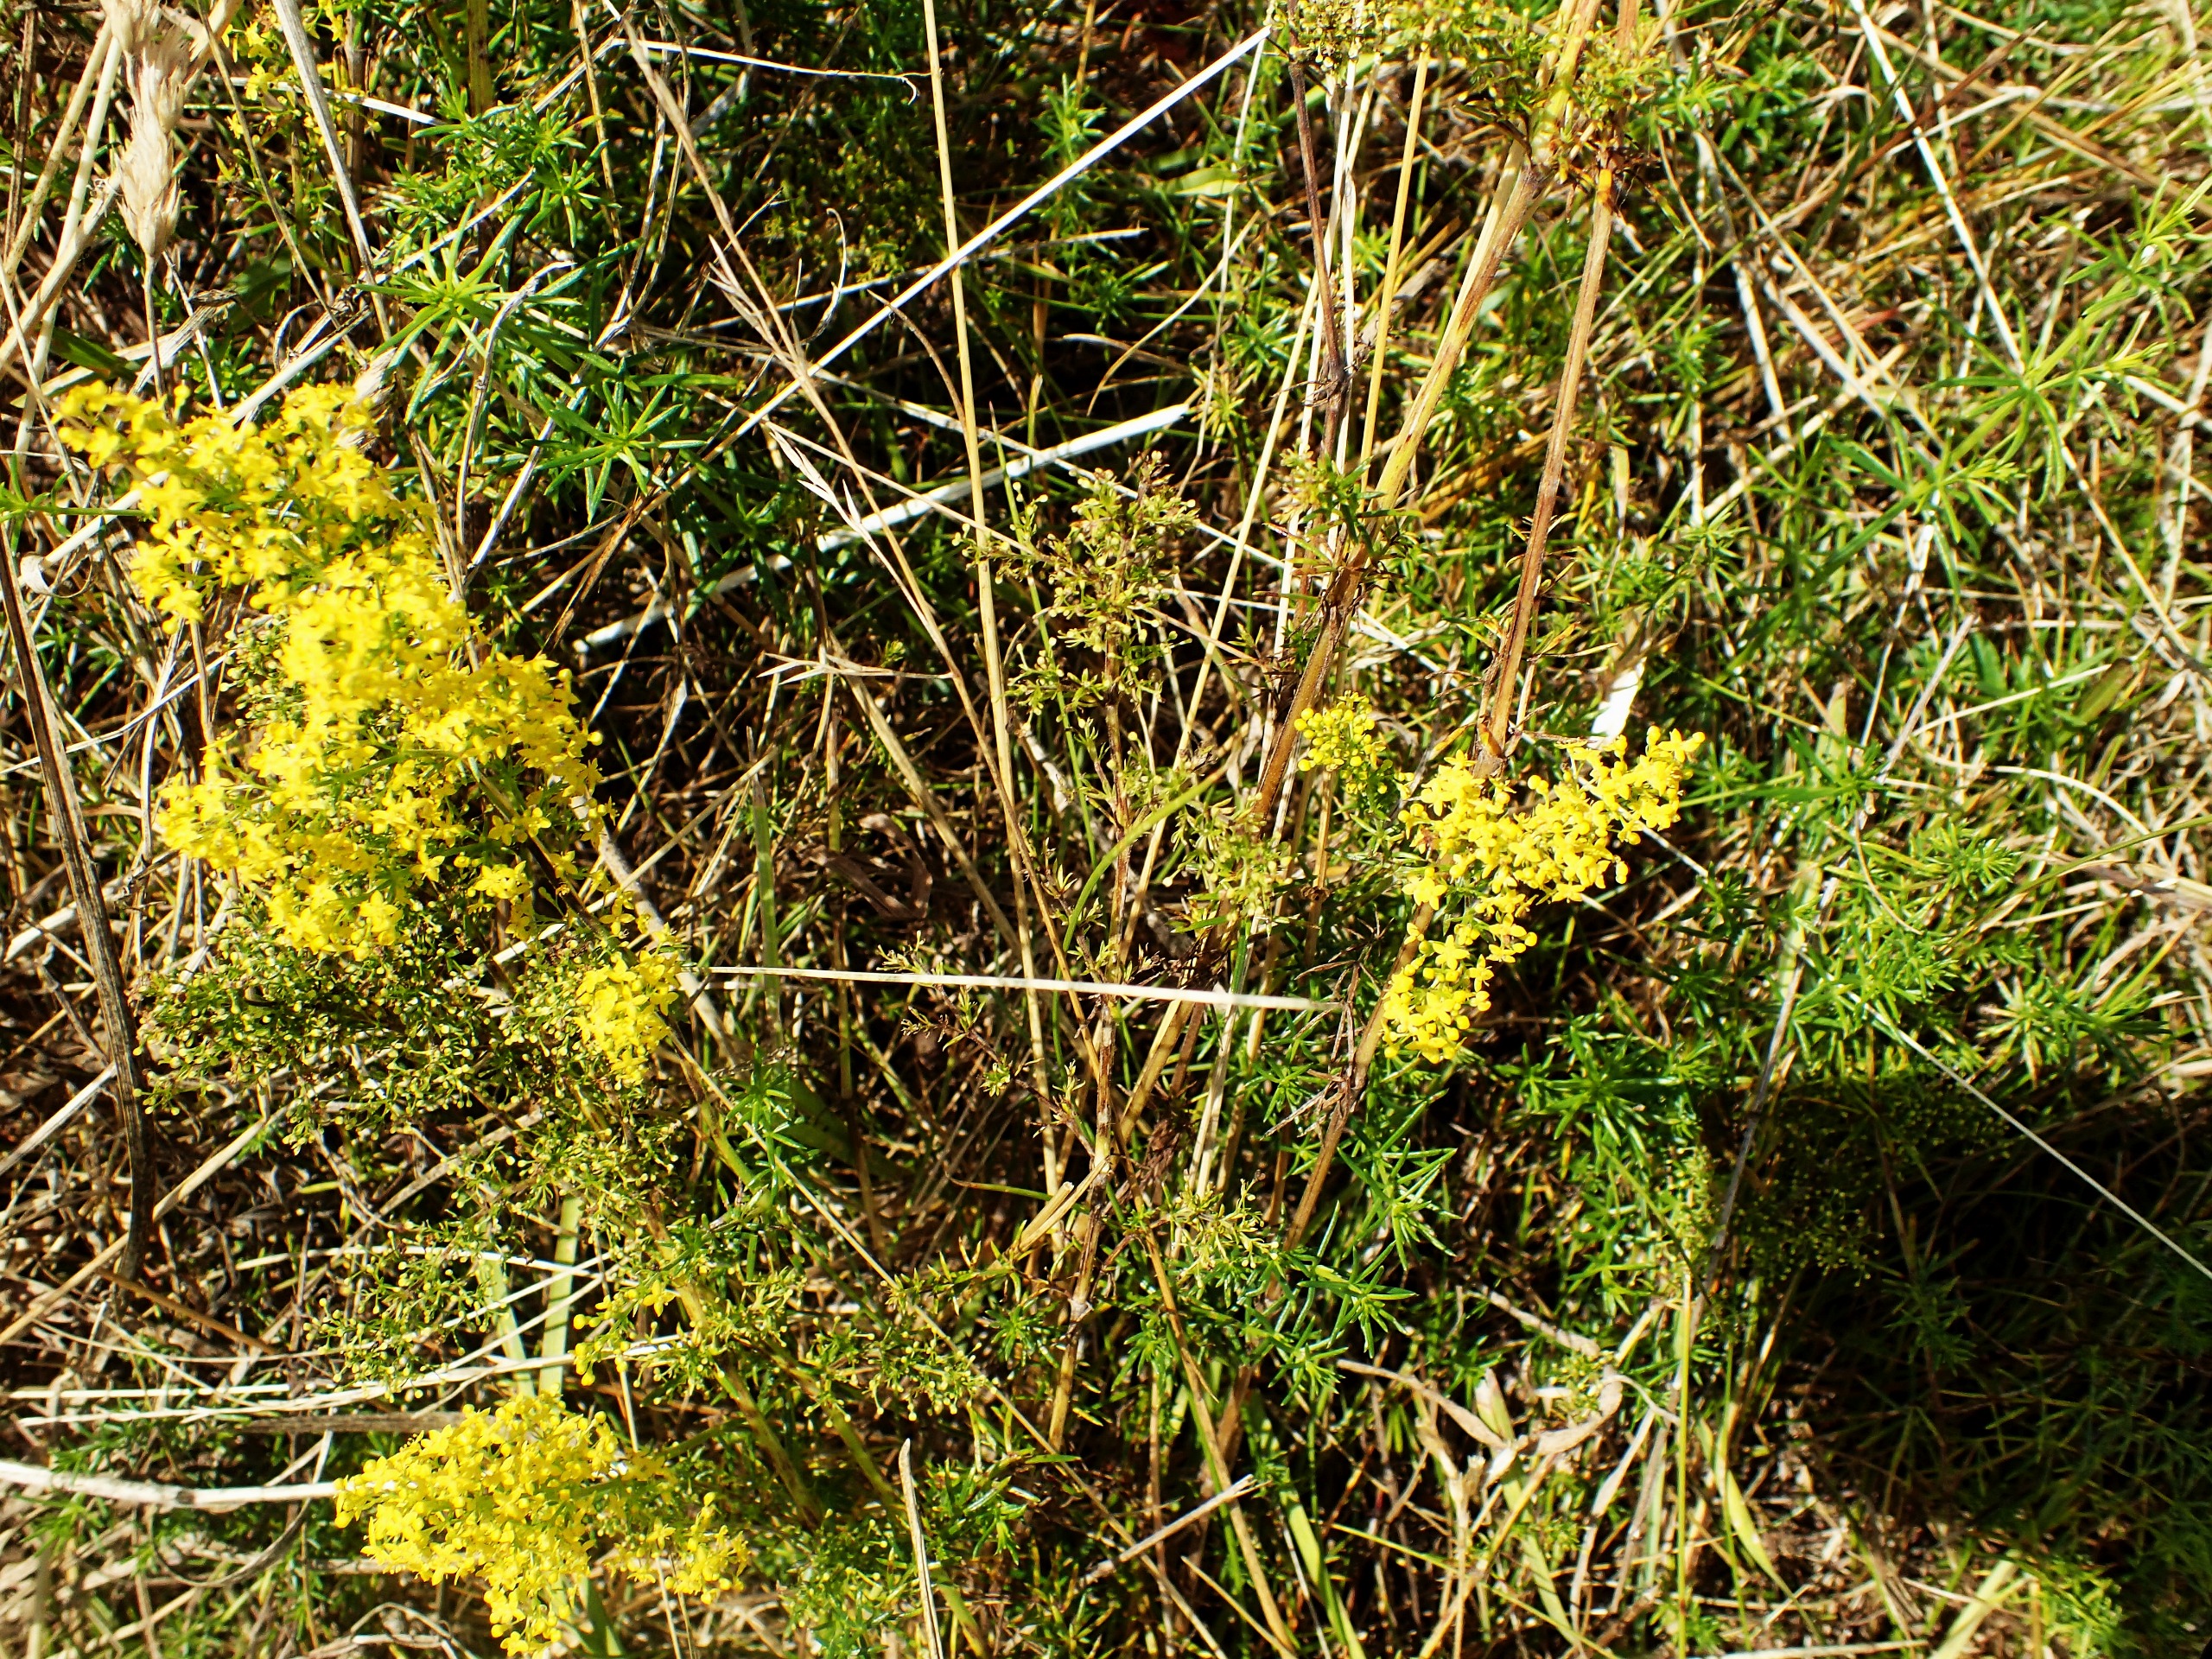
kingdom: Plantae
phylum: Tracheophyta
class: Magnoliopsida
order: Gentianales
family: Rubiaceae
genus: Galium
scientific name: Galium verum
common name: Gul snerre
